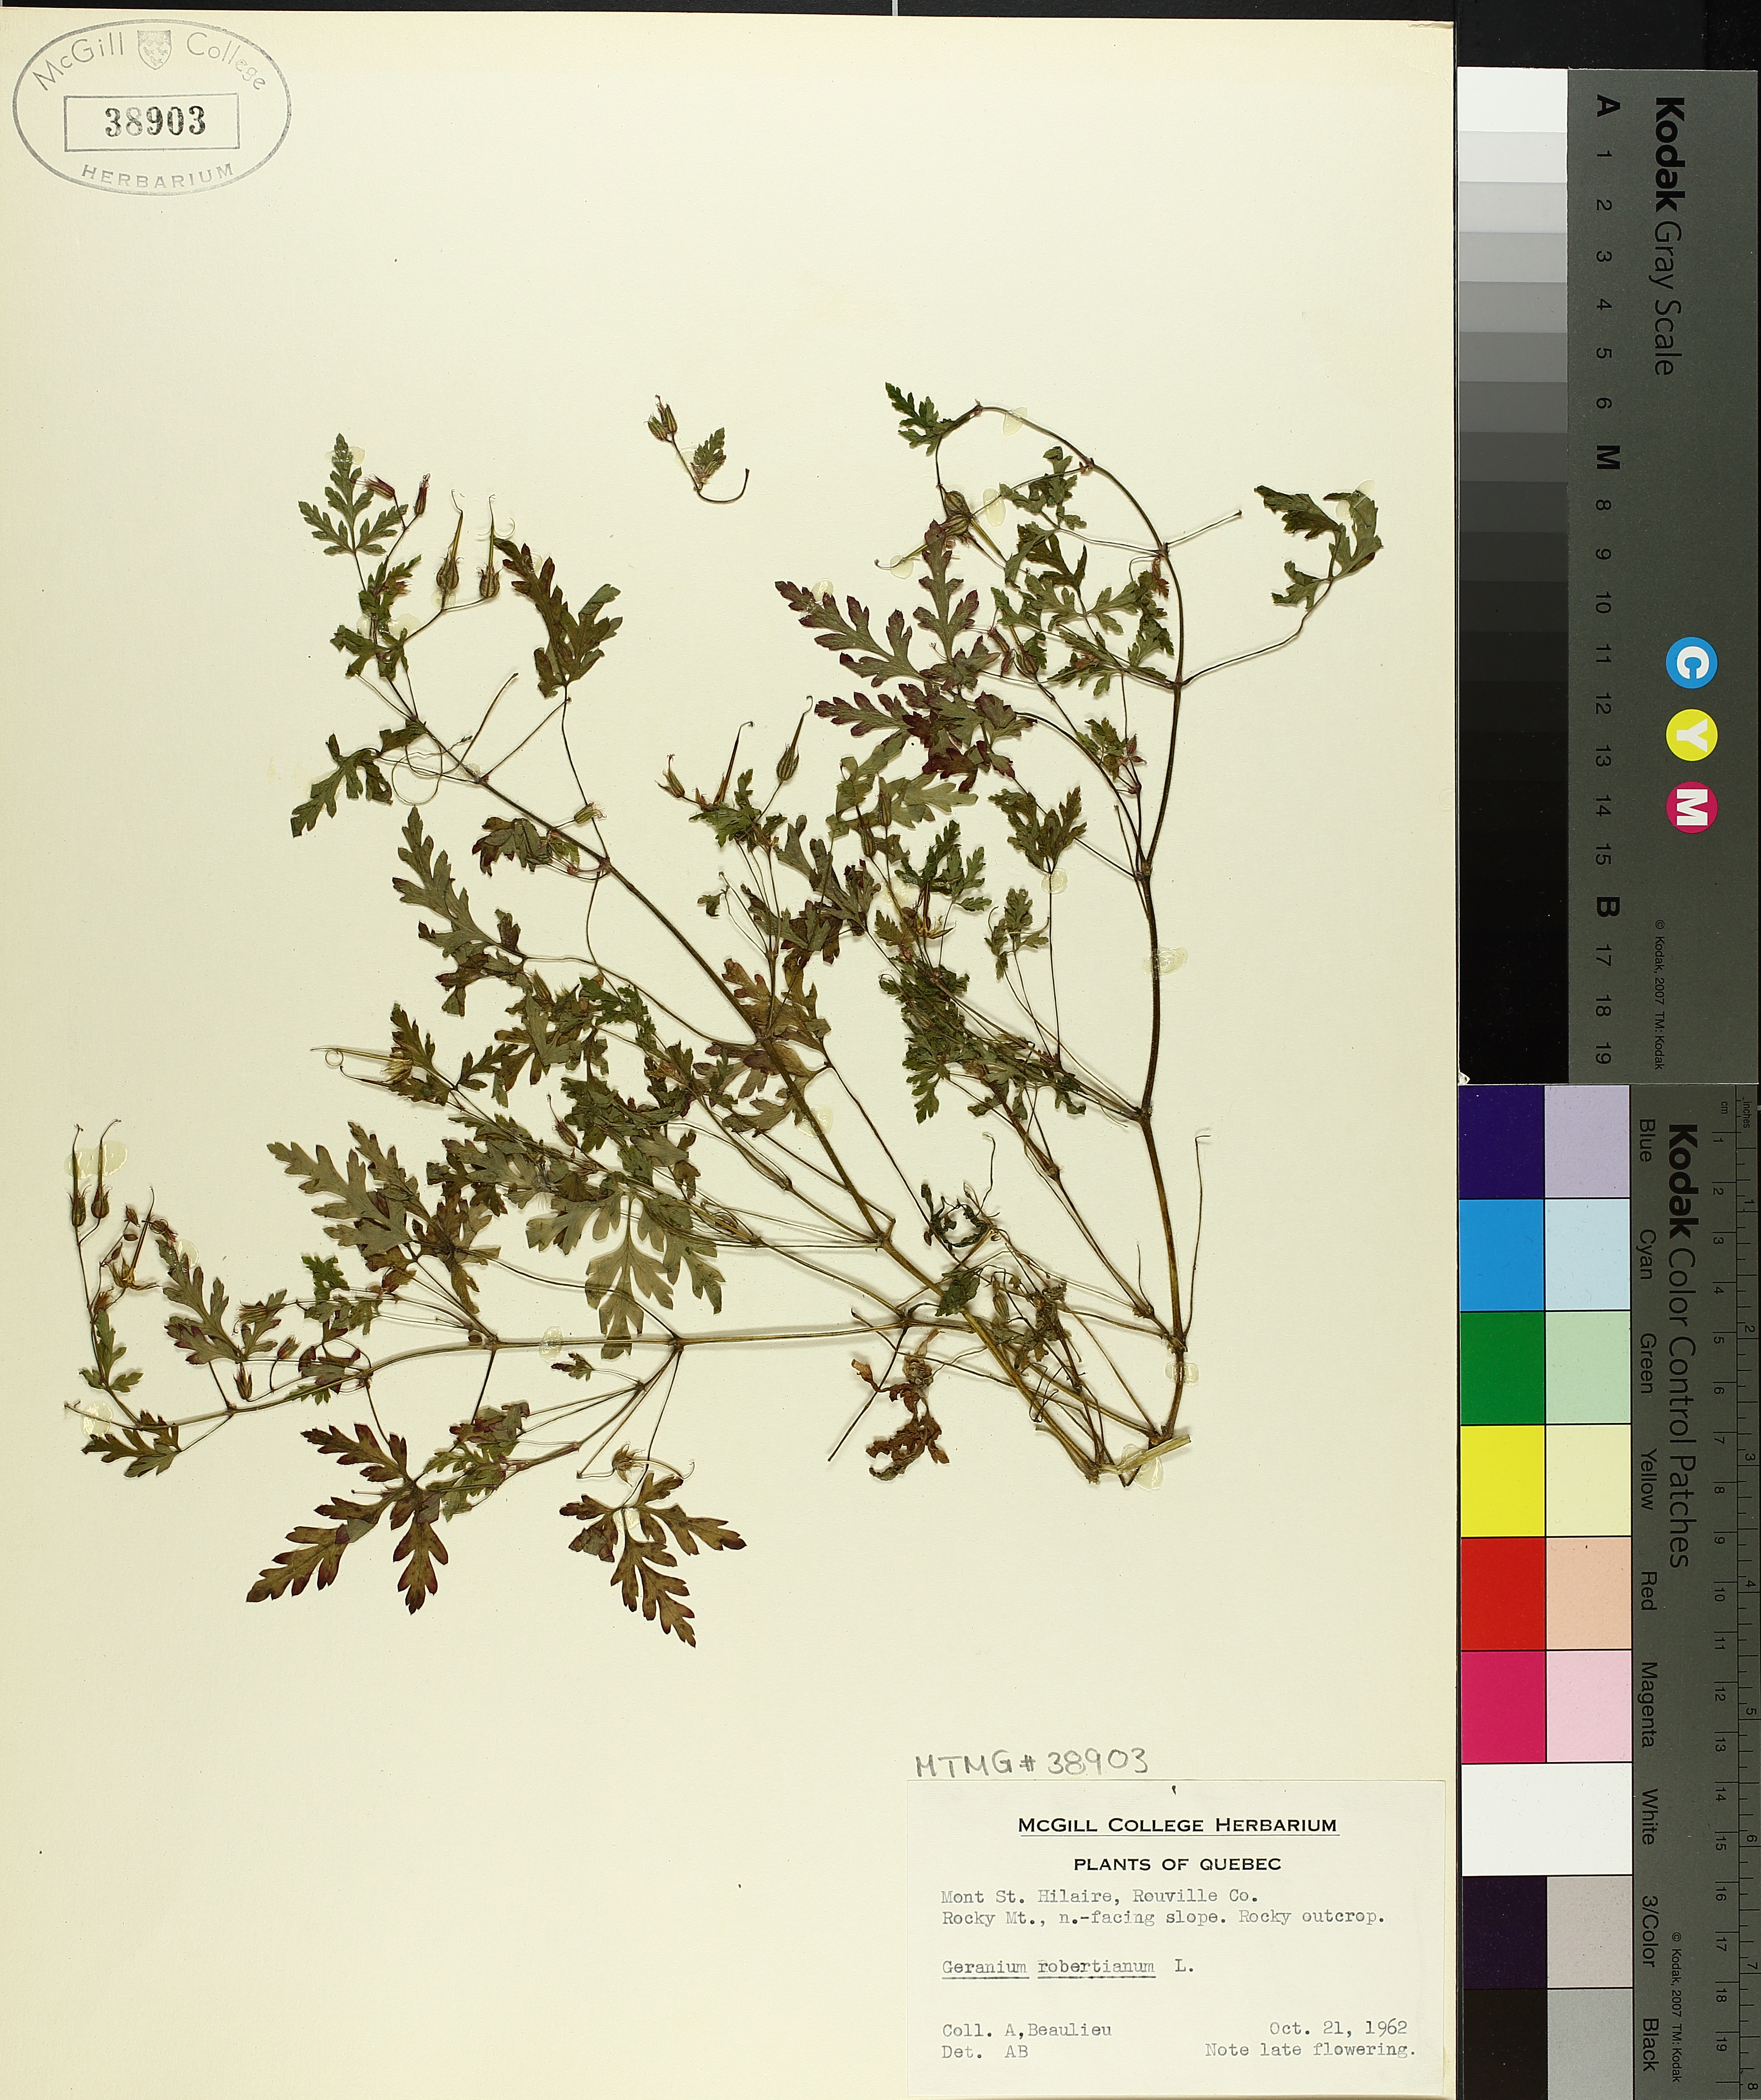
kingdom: Plantae
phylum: Tracheophyta
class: Magnoliopsida
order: Geraniales
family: Geraniaceae
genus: Geranium
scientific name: Geranium robertianum
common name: Herb-robert
